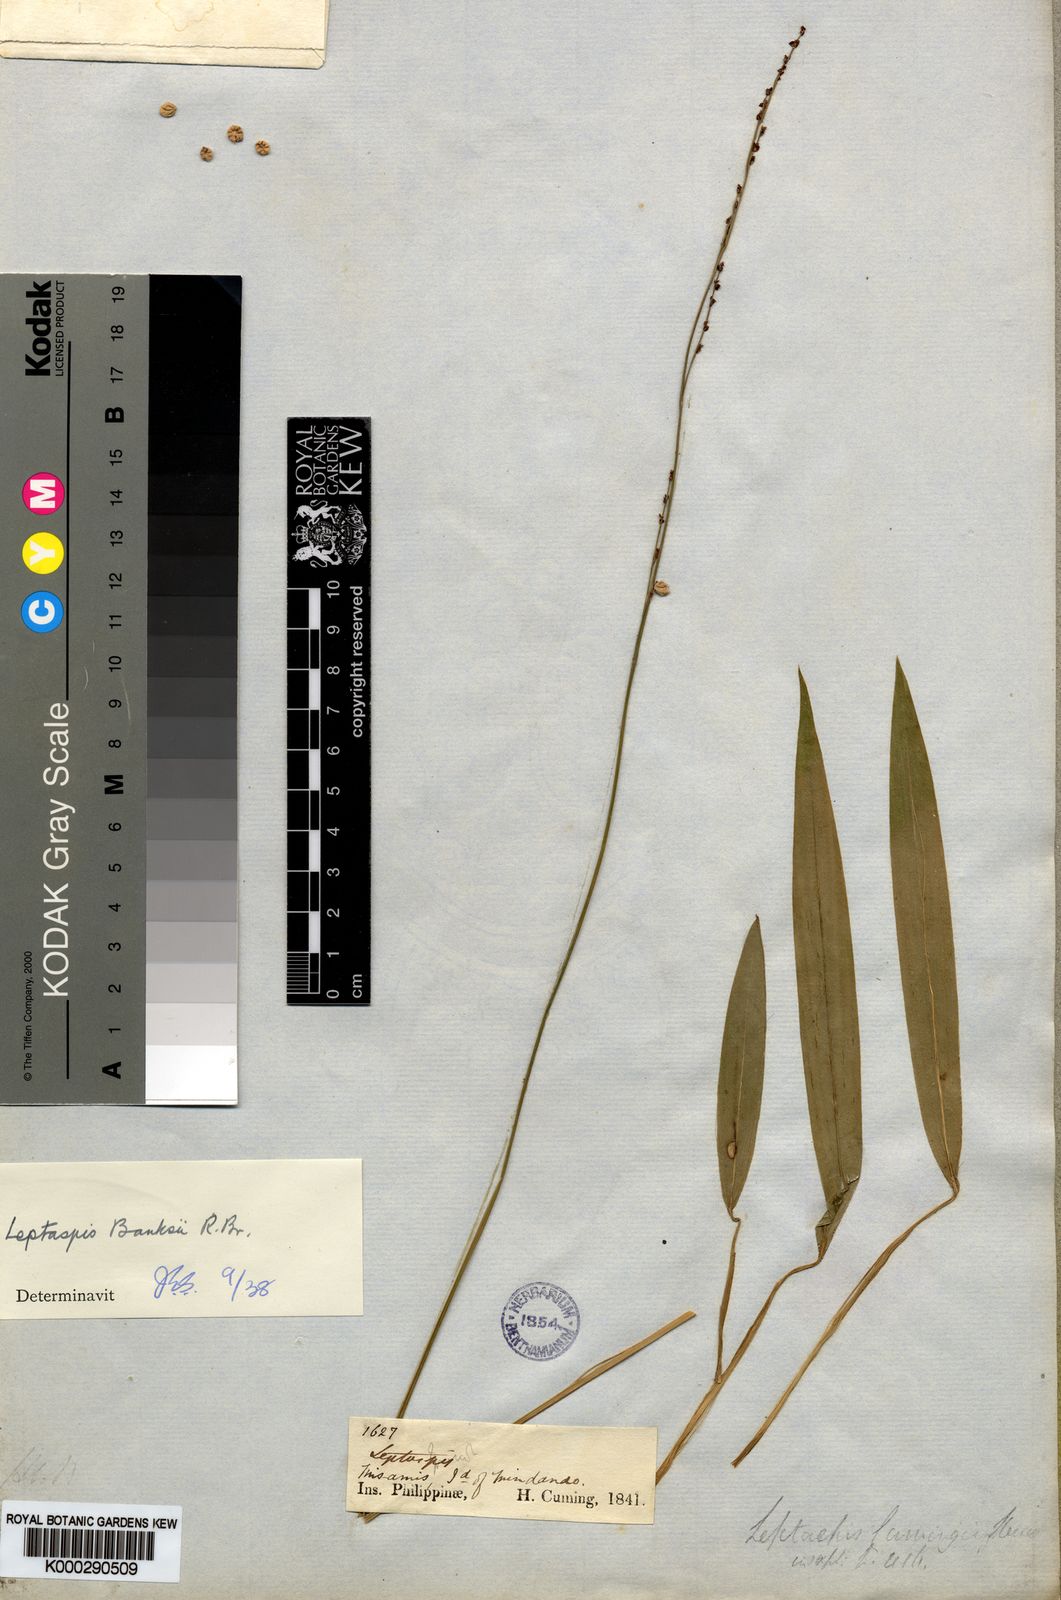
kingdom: Plantae
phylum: Tracheophyta
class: Liliopsida
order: Poales
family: Poaceae
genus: Leptaspis
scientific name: Leptaspis banksii
